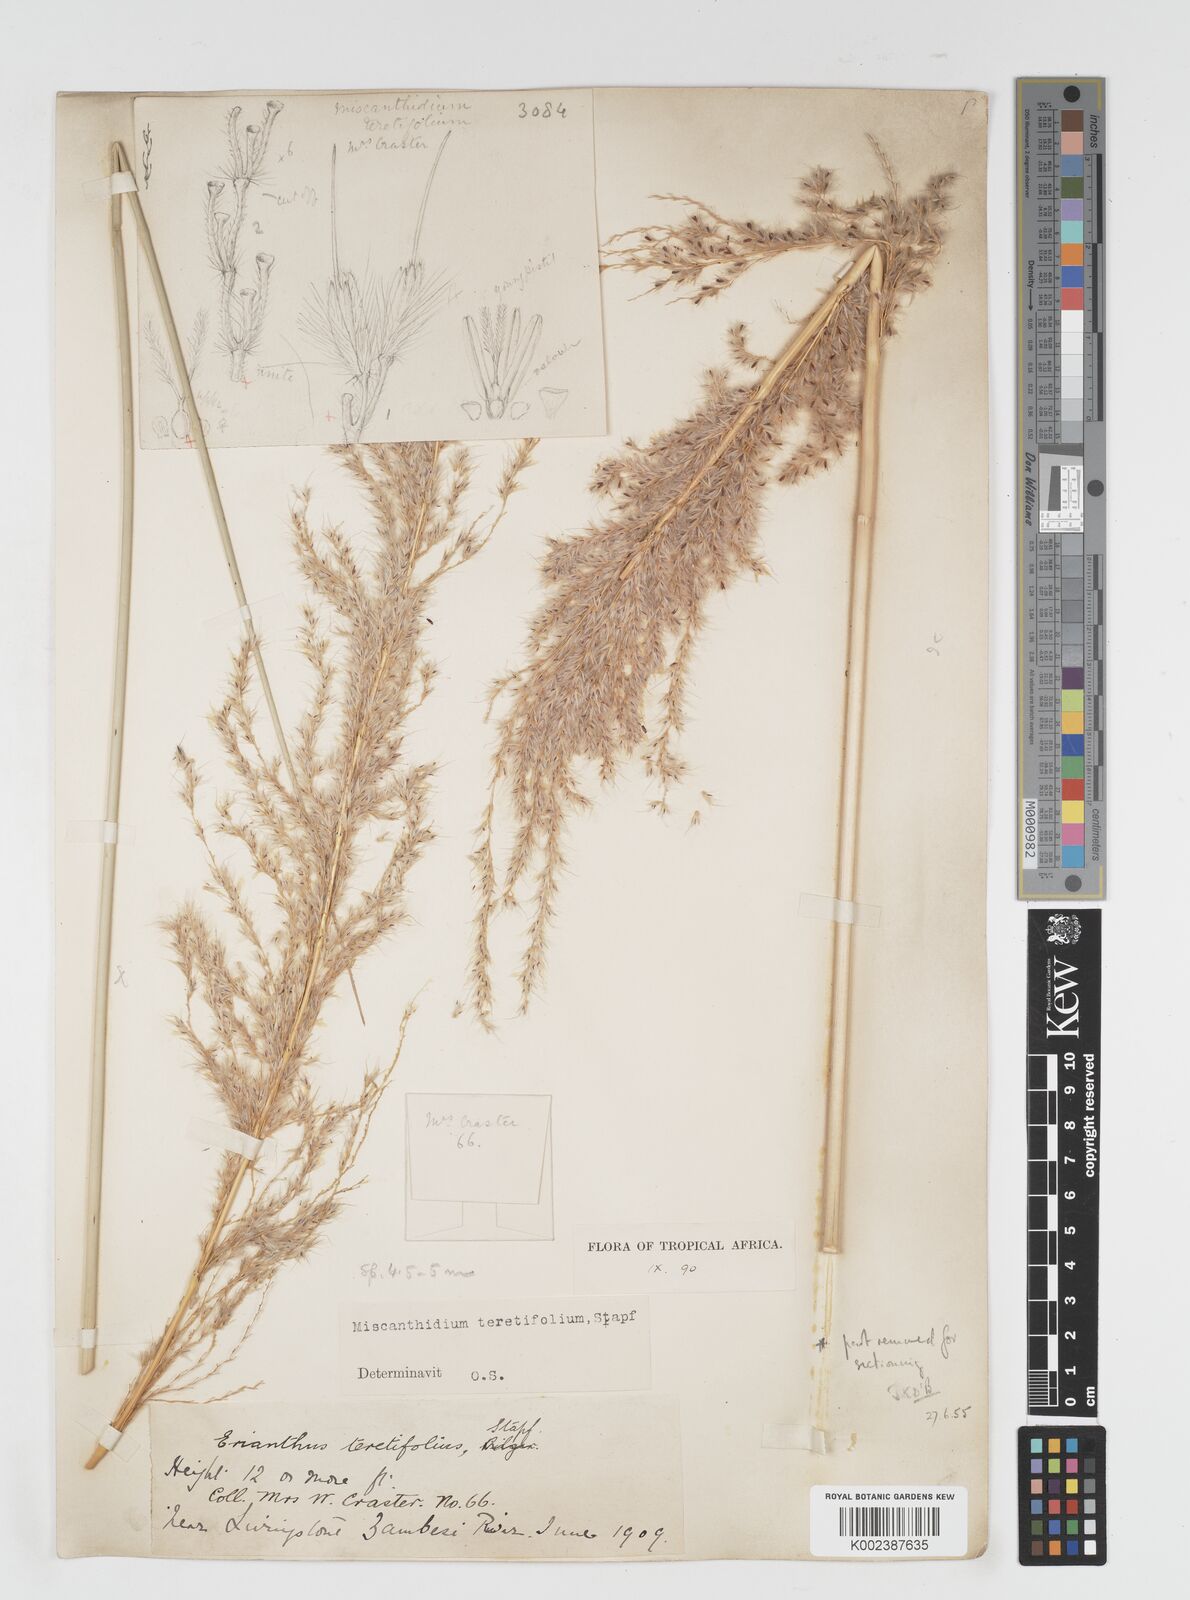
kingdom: Plantae
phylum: Tracheophyta
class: Liliopsida
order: Poales
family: Poaceae
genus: Miscanthidium
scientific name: Miscanthidium junceum
